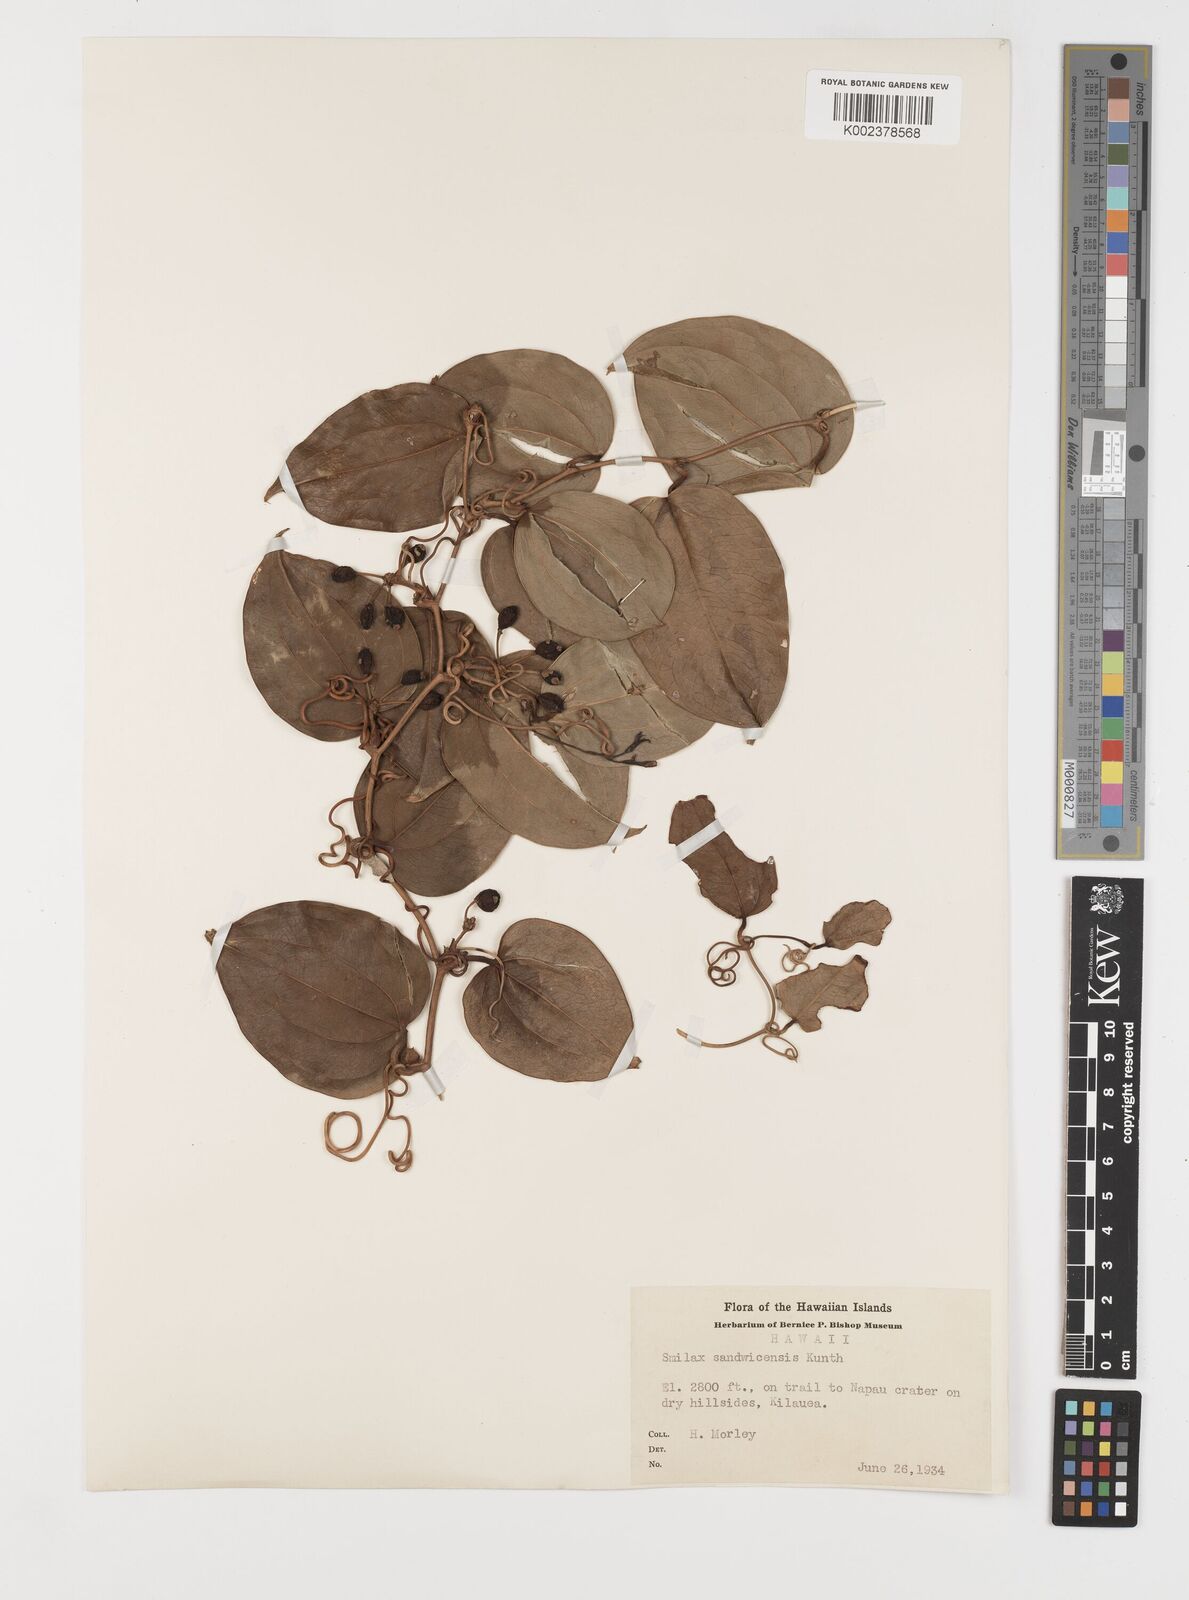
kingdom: Plantae
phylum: Tracheophyta
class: Liliopsida
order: Liliales
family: Smilacaceae
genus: Smilax
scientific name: Smilax melastomifolia
